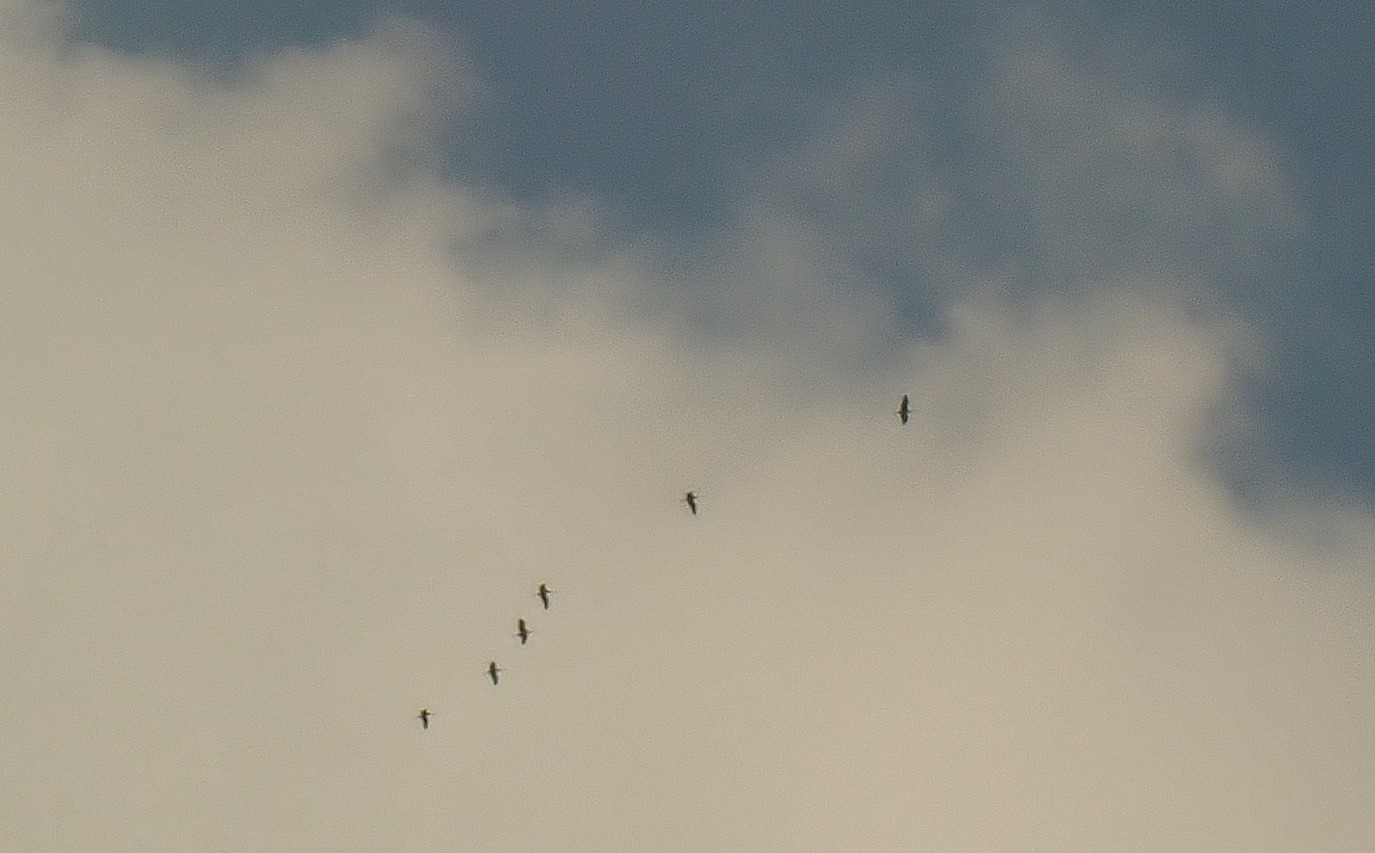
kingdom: Animalia
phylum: Chordata
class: Aves
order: Gruiformes
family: Gruidae
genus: Grus
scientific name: Grus grus
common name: Trane
